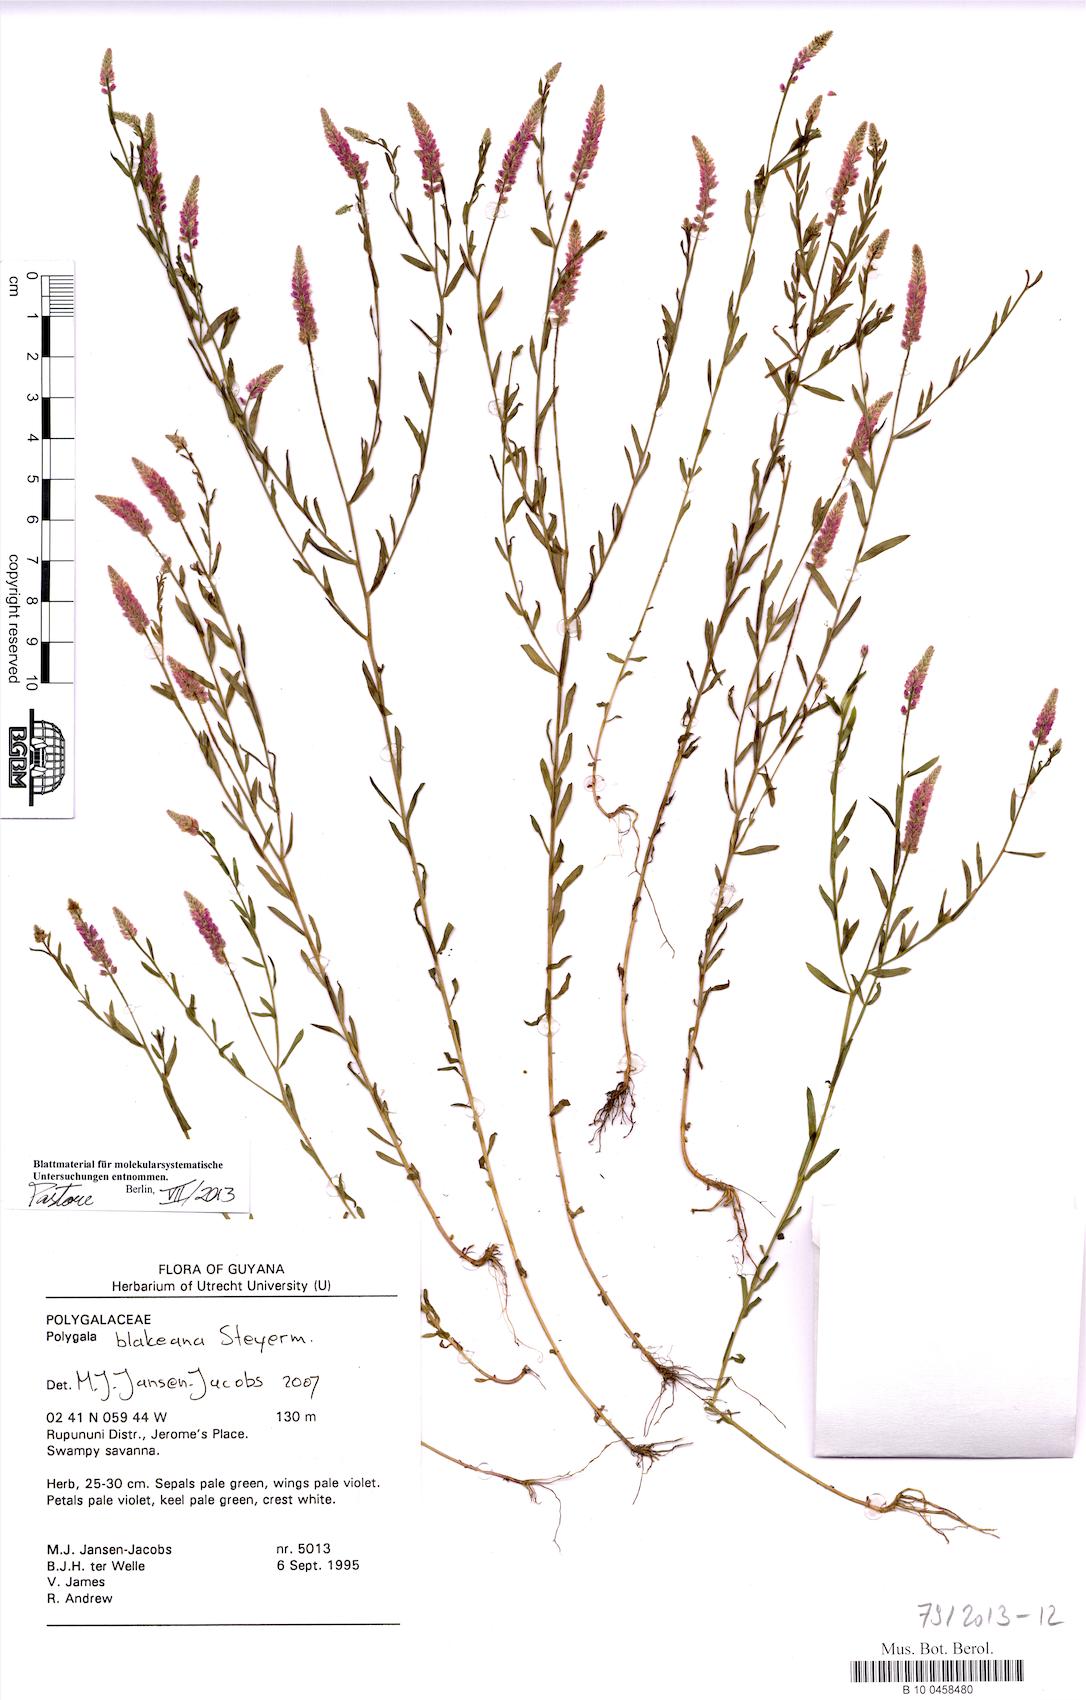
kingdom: Plantae
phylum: Tracheophyta
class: Magnoliopsida
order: Fabales
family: Polygalaceae
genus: Polygala
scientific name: Polygala blakeana
